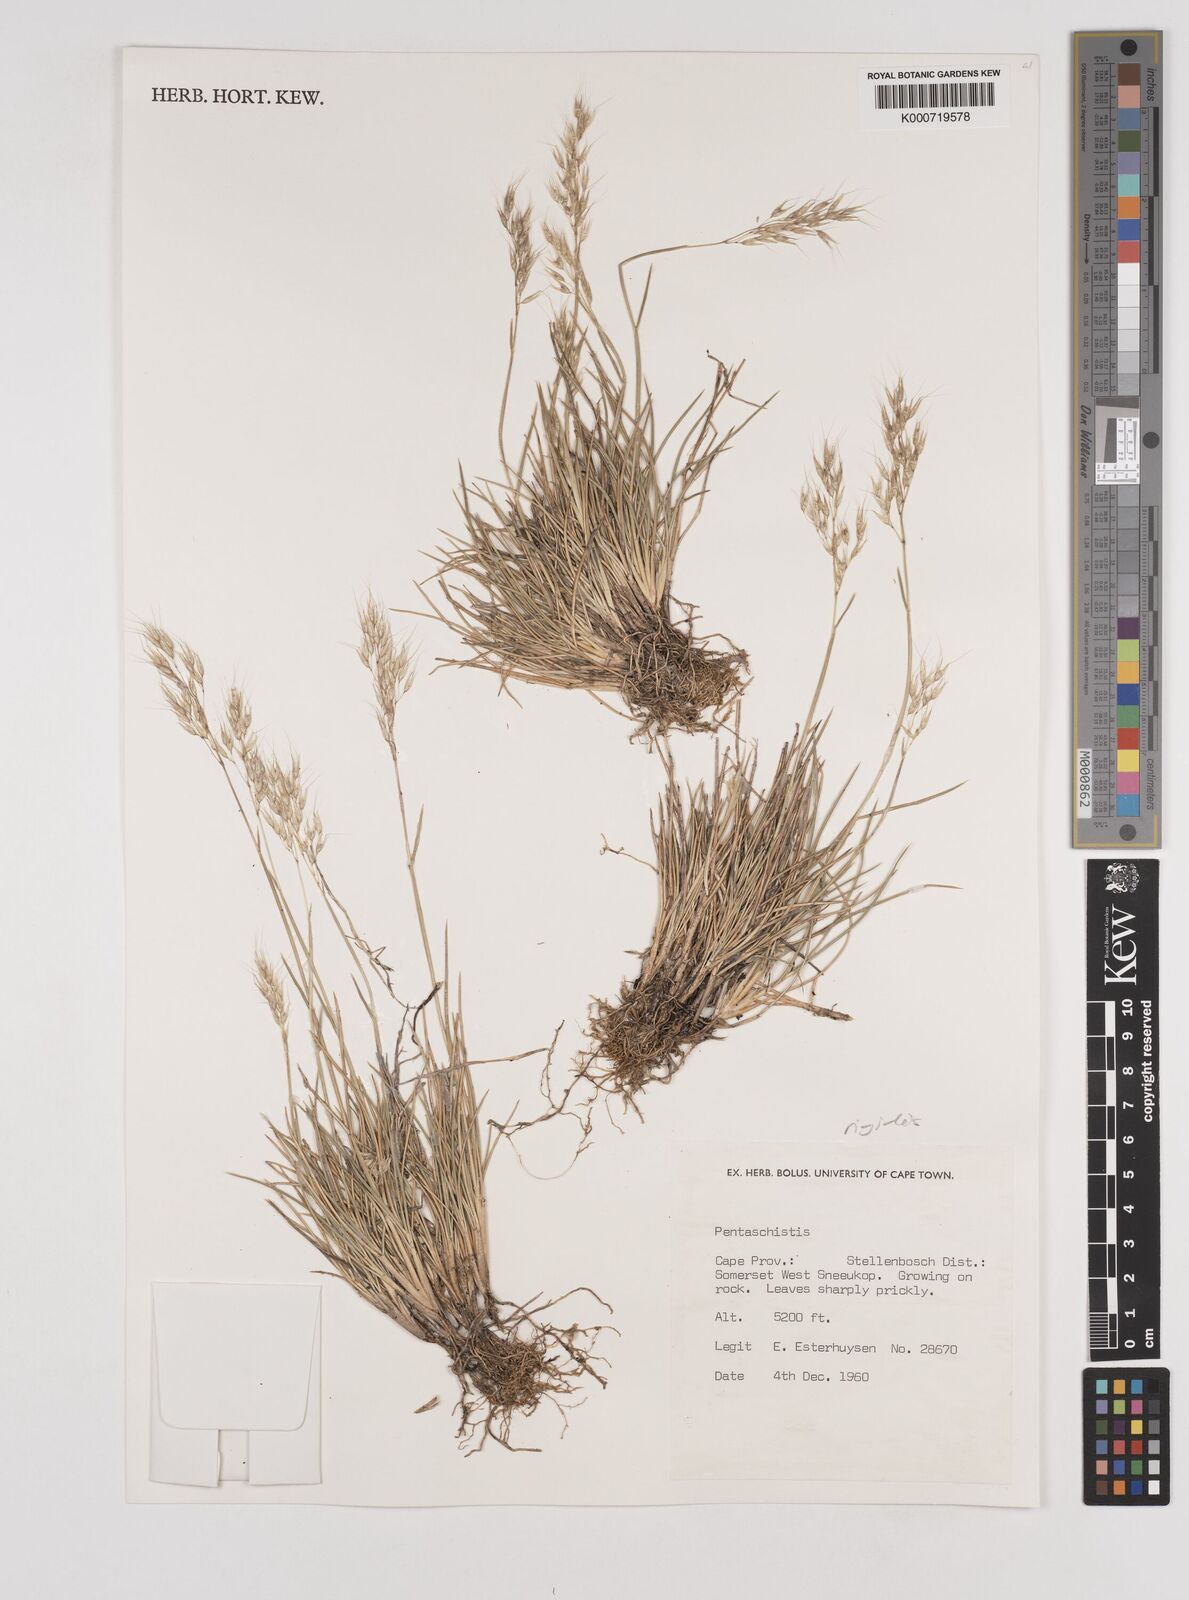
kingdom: Plantae
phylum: Tracheophyta
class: Liliopsida
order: Poales
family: Poaceae
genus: Pentameris
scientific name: Pentameris rigidissima
